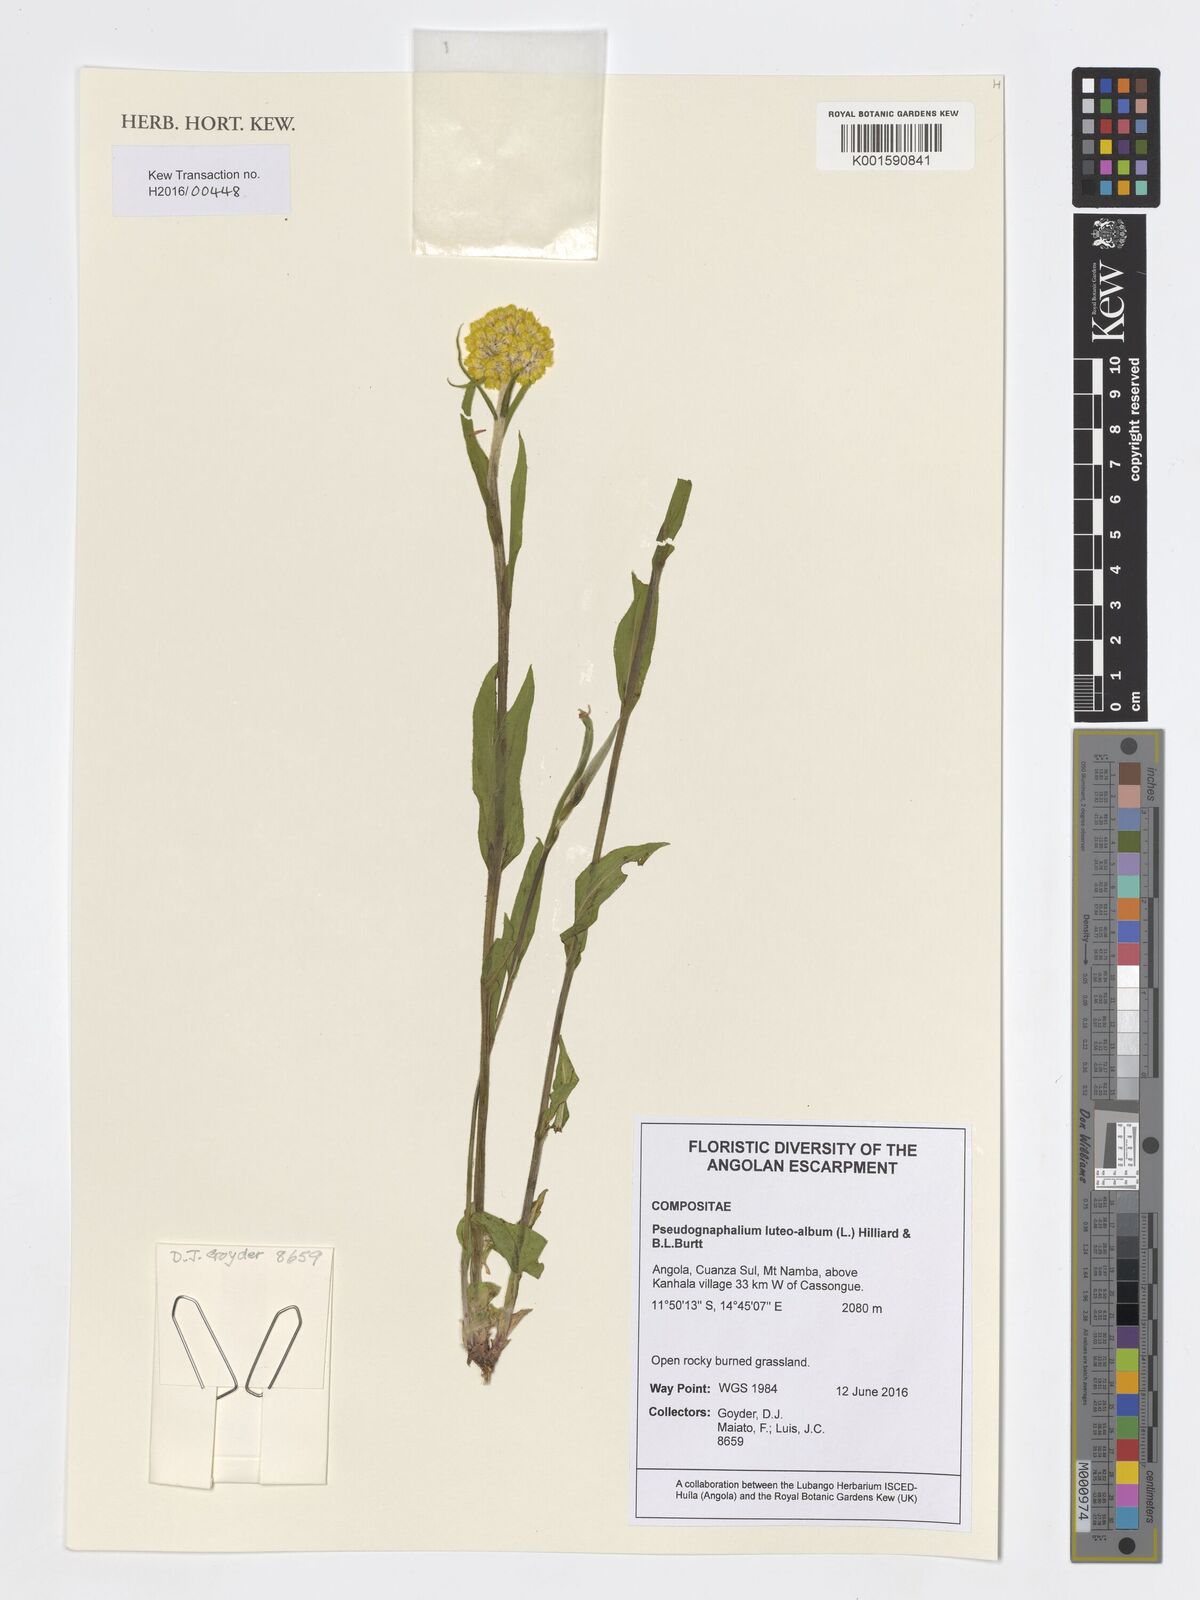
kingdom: Plantae
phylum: Tracheophyta
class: Magnoliopsida
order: Asterales
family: Asteraceae
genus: Helichrysum
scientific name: Helichrysum luteoalbum
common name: Daisy
